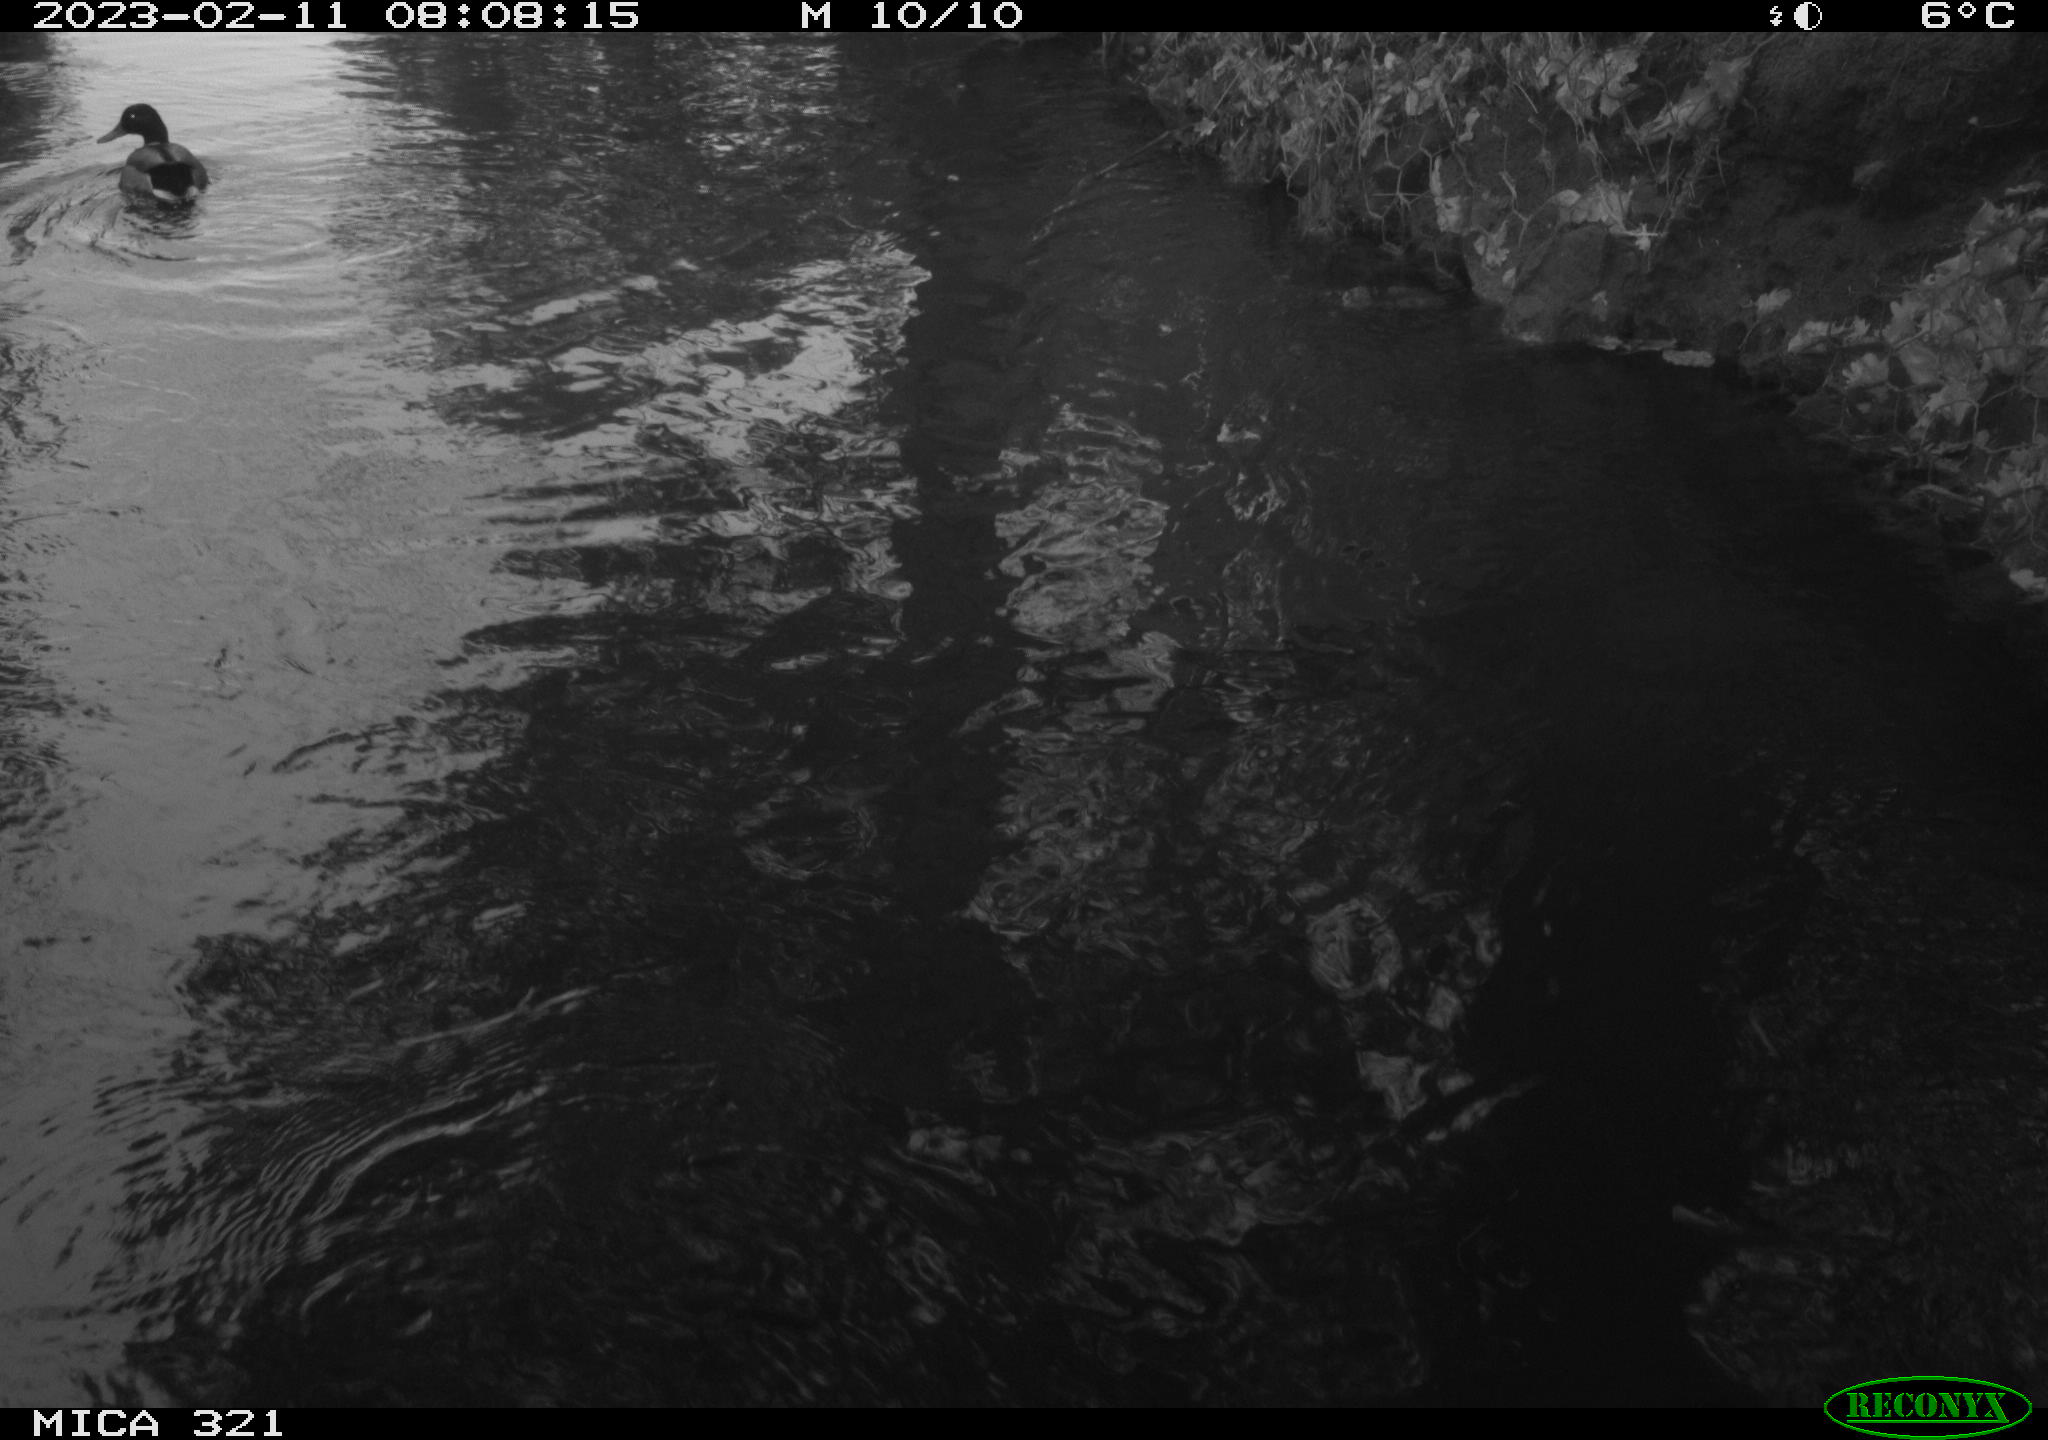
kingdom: Animalia
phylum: Chordata
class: Aves
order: Anseriformes
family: Anatidae
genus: Anas
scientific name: Anas
